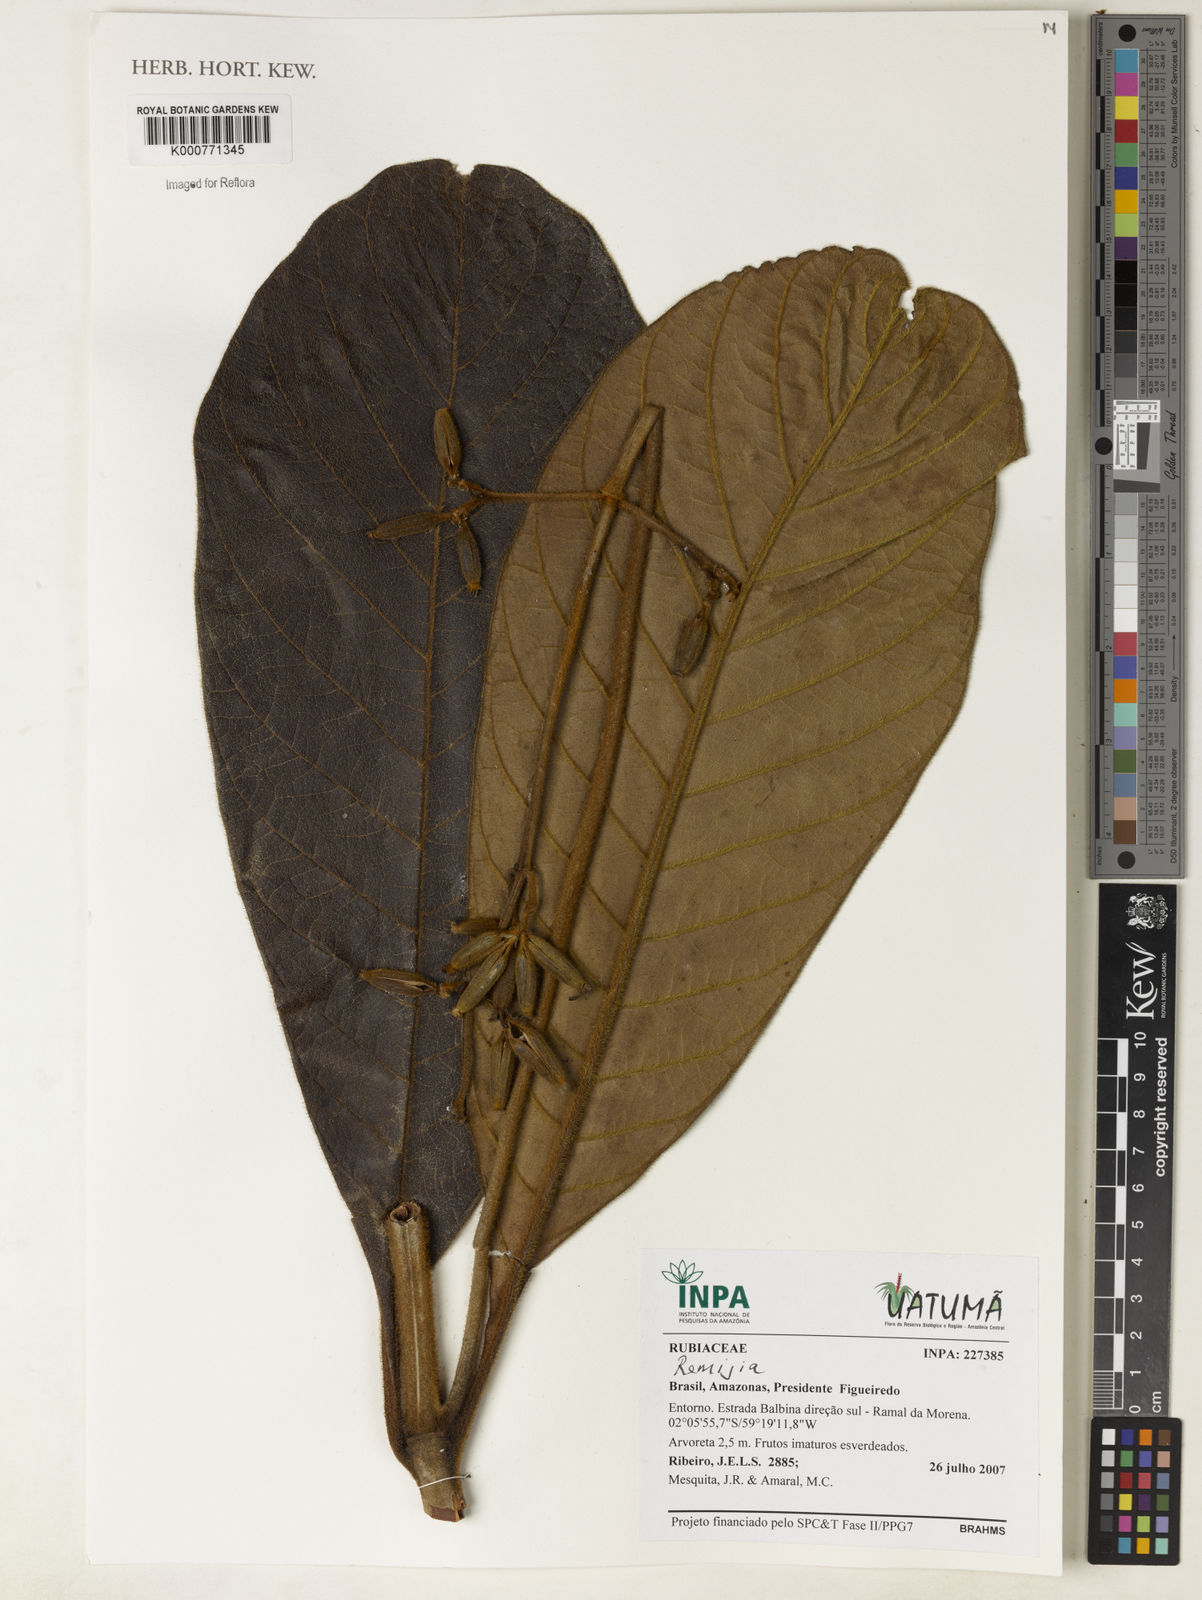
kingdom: Plantae
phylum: Tracheophyta
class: Magnoliopsida
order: Gentianales
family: Rubiaceae
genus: Remijia
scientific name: Remijia
